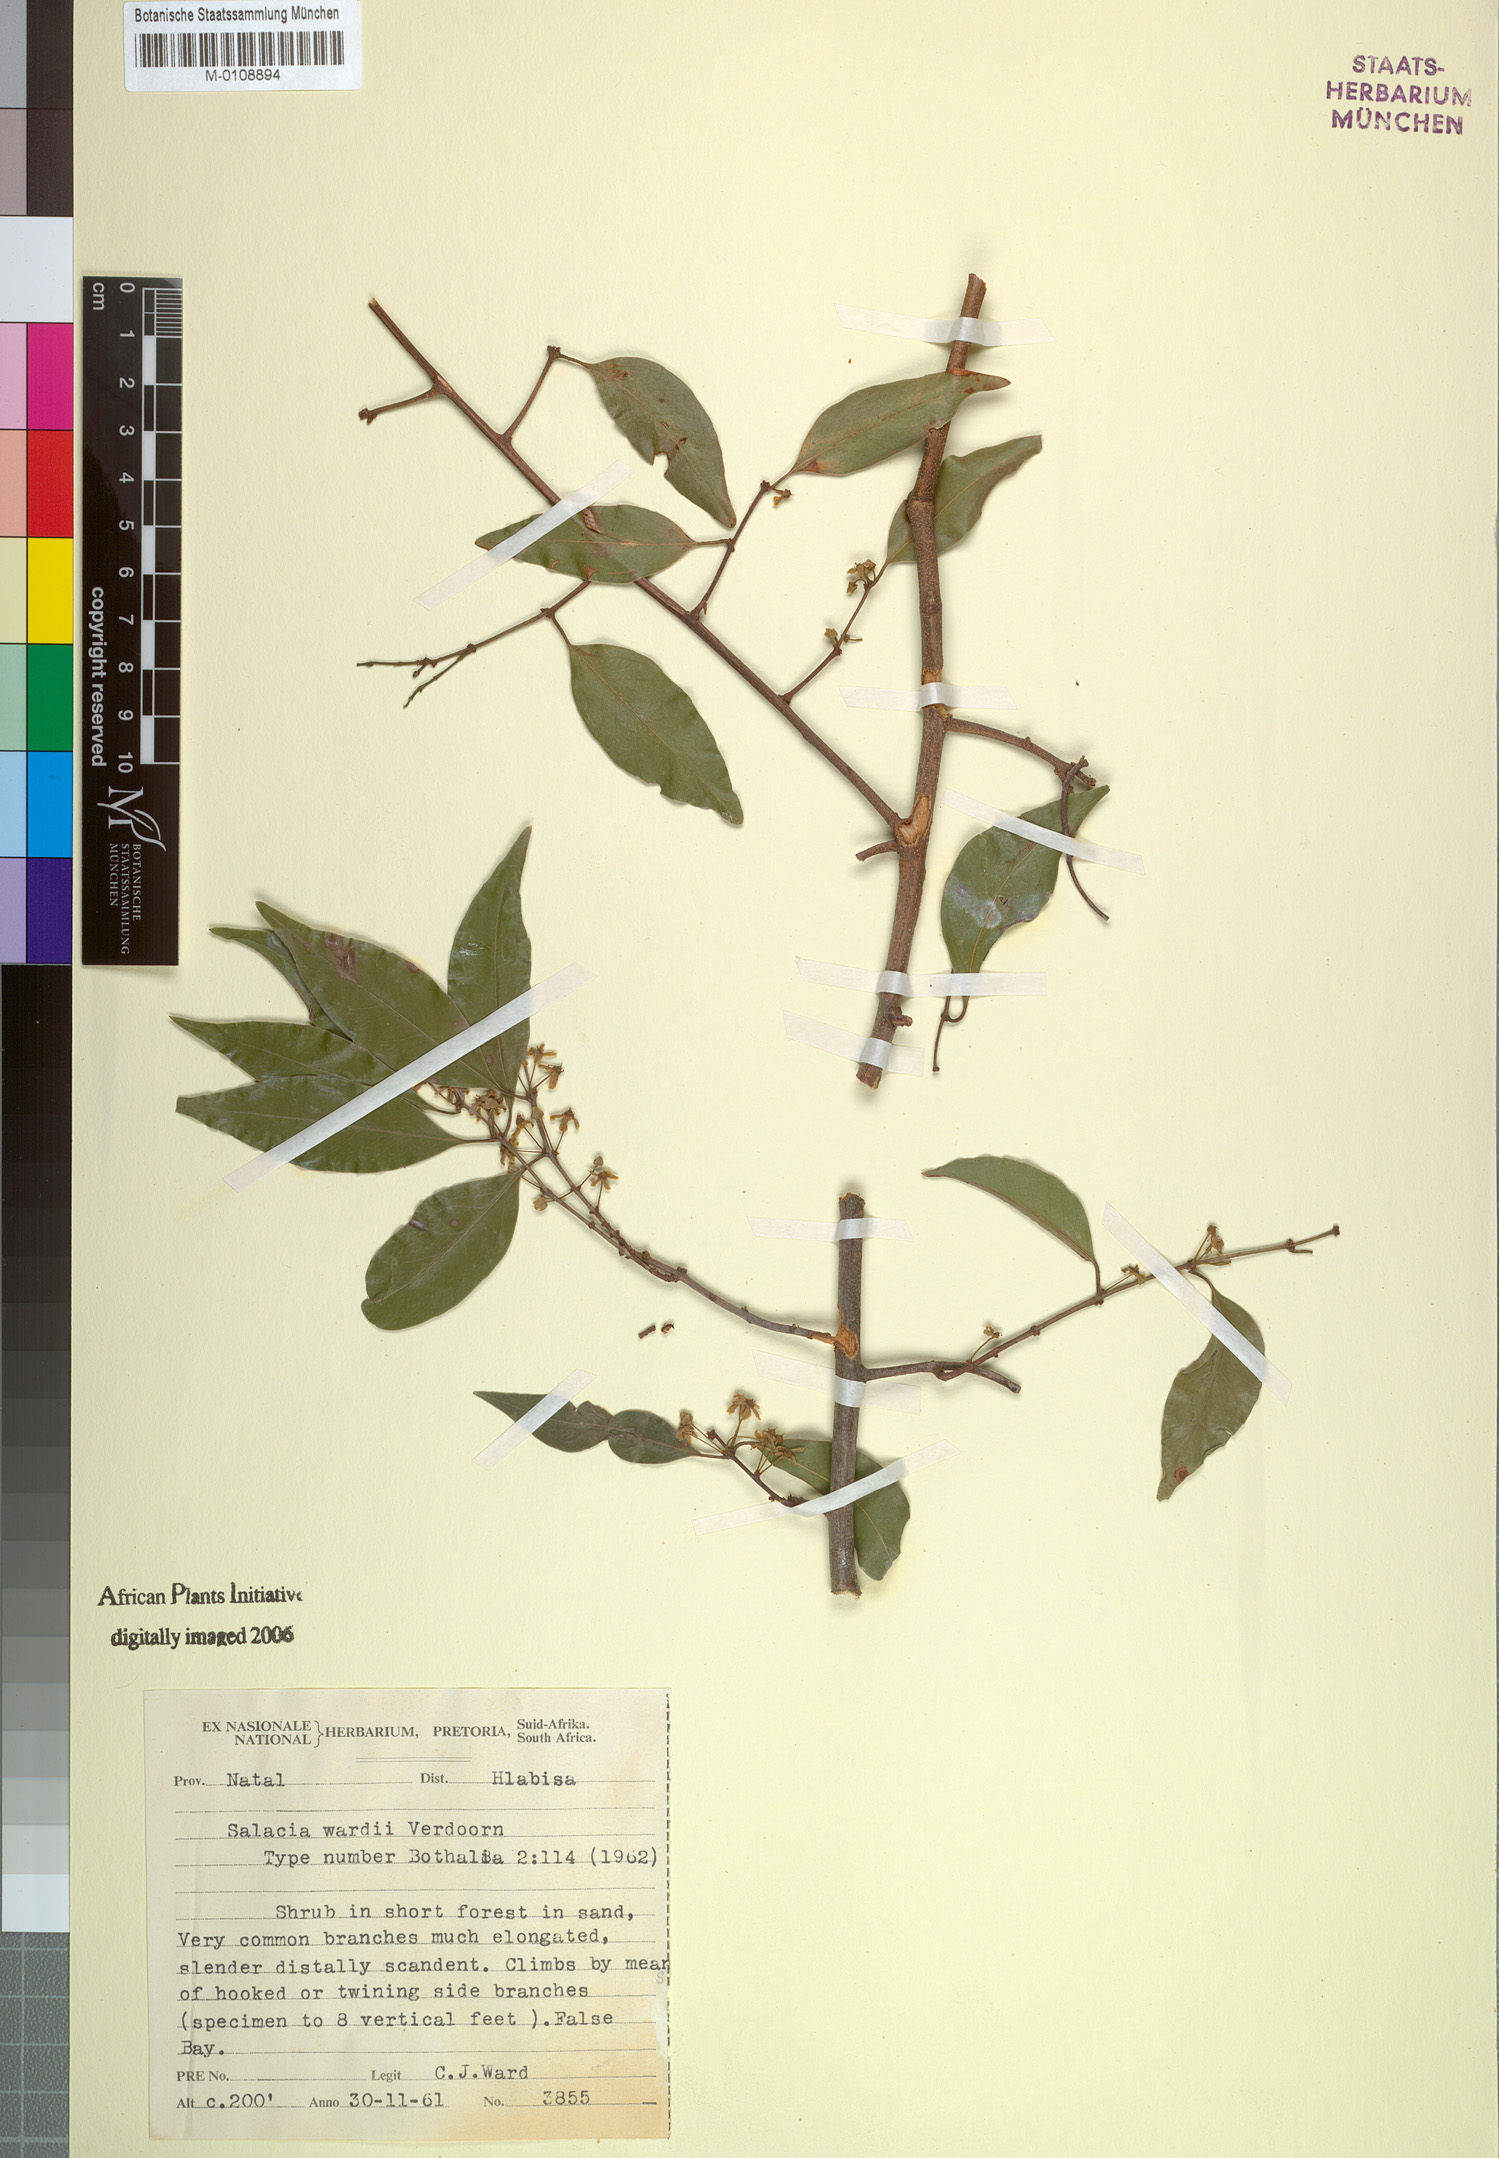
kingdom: Plantae
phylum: Tracheophyta
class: Magnoliopsida
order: Celastrales
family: Celastraceae
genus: Salacia
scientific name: Salacia leptoclada
